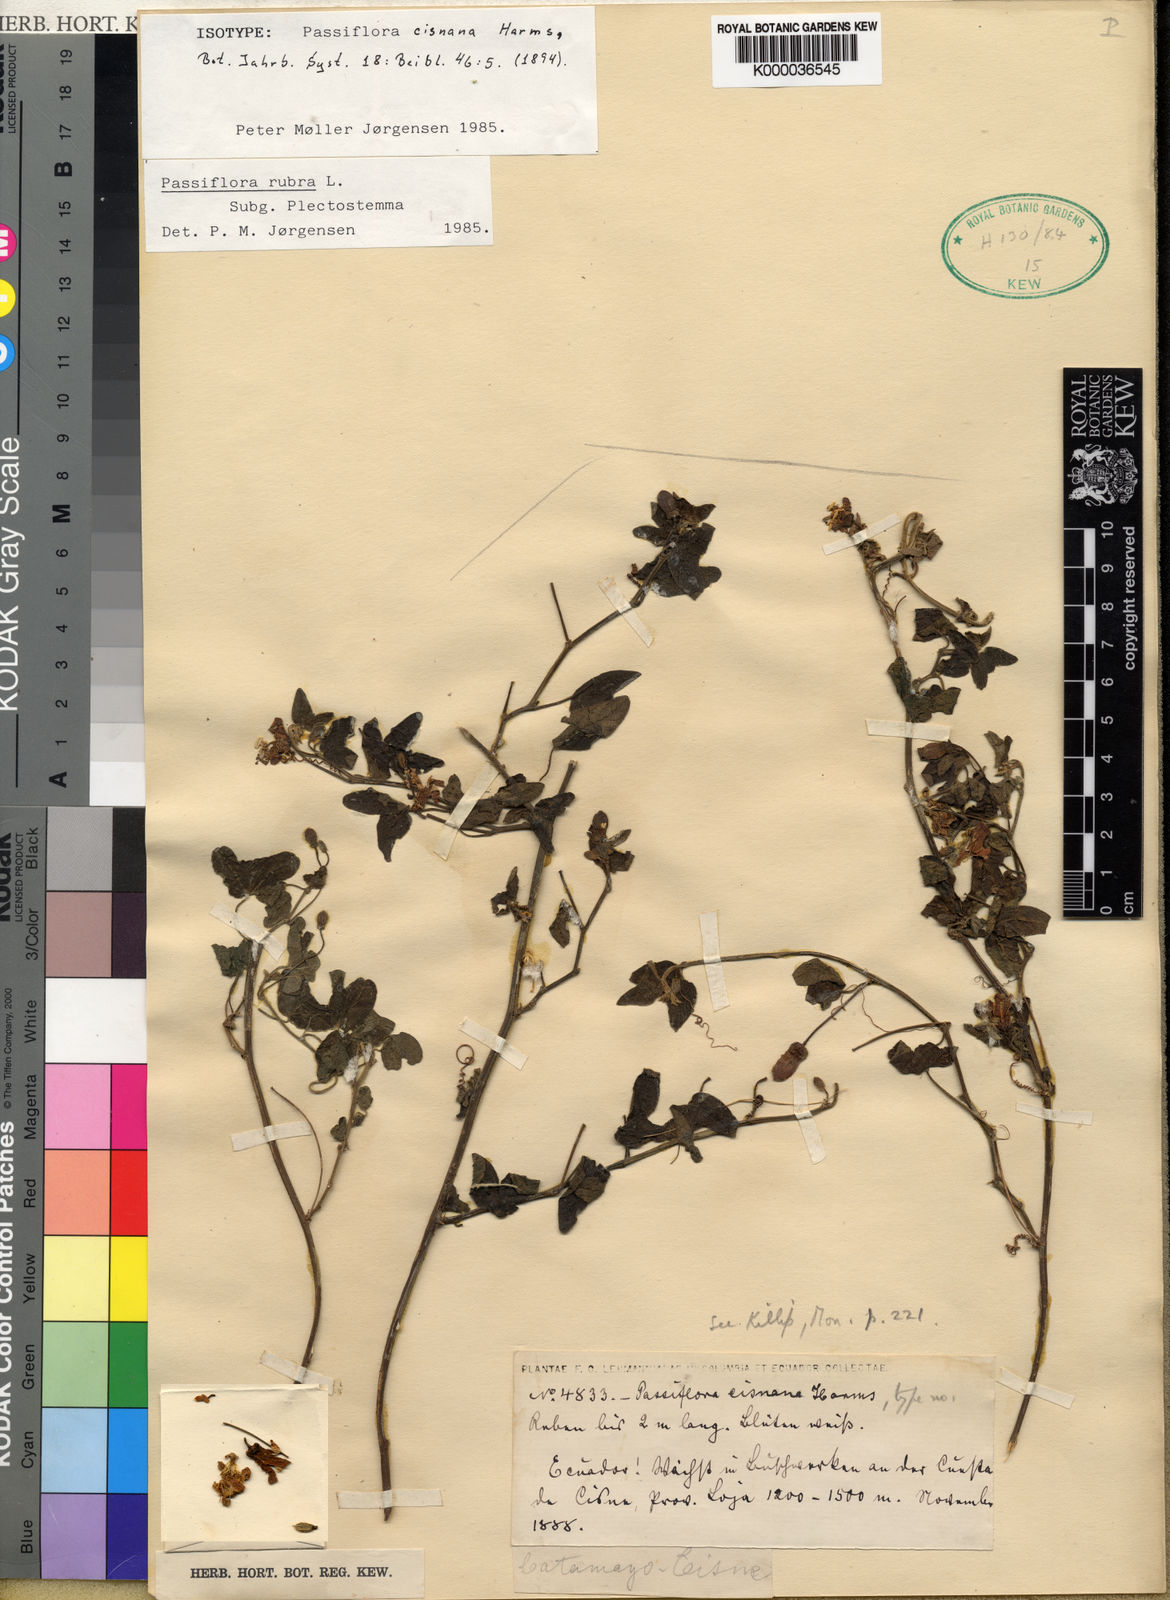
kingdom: Plantae
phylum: Tracheophyta
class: Magnoliopsida
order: Malpighiales
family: Passifloraceae
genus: Passiflora
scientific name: Passiflora rubra
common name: Snakeberry vine
